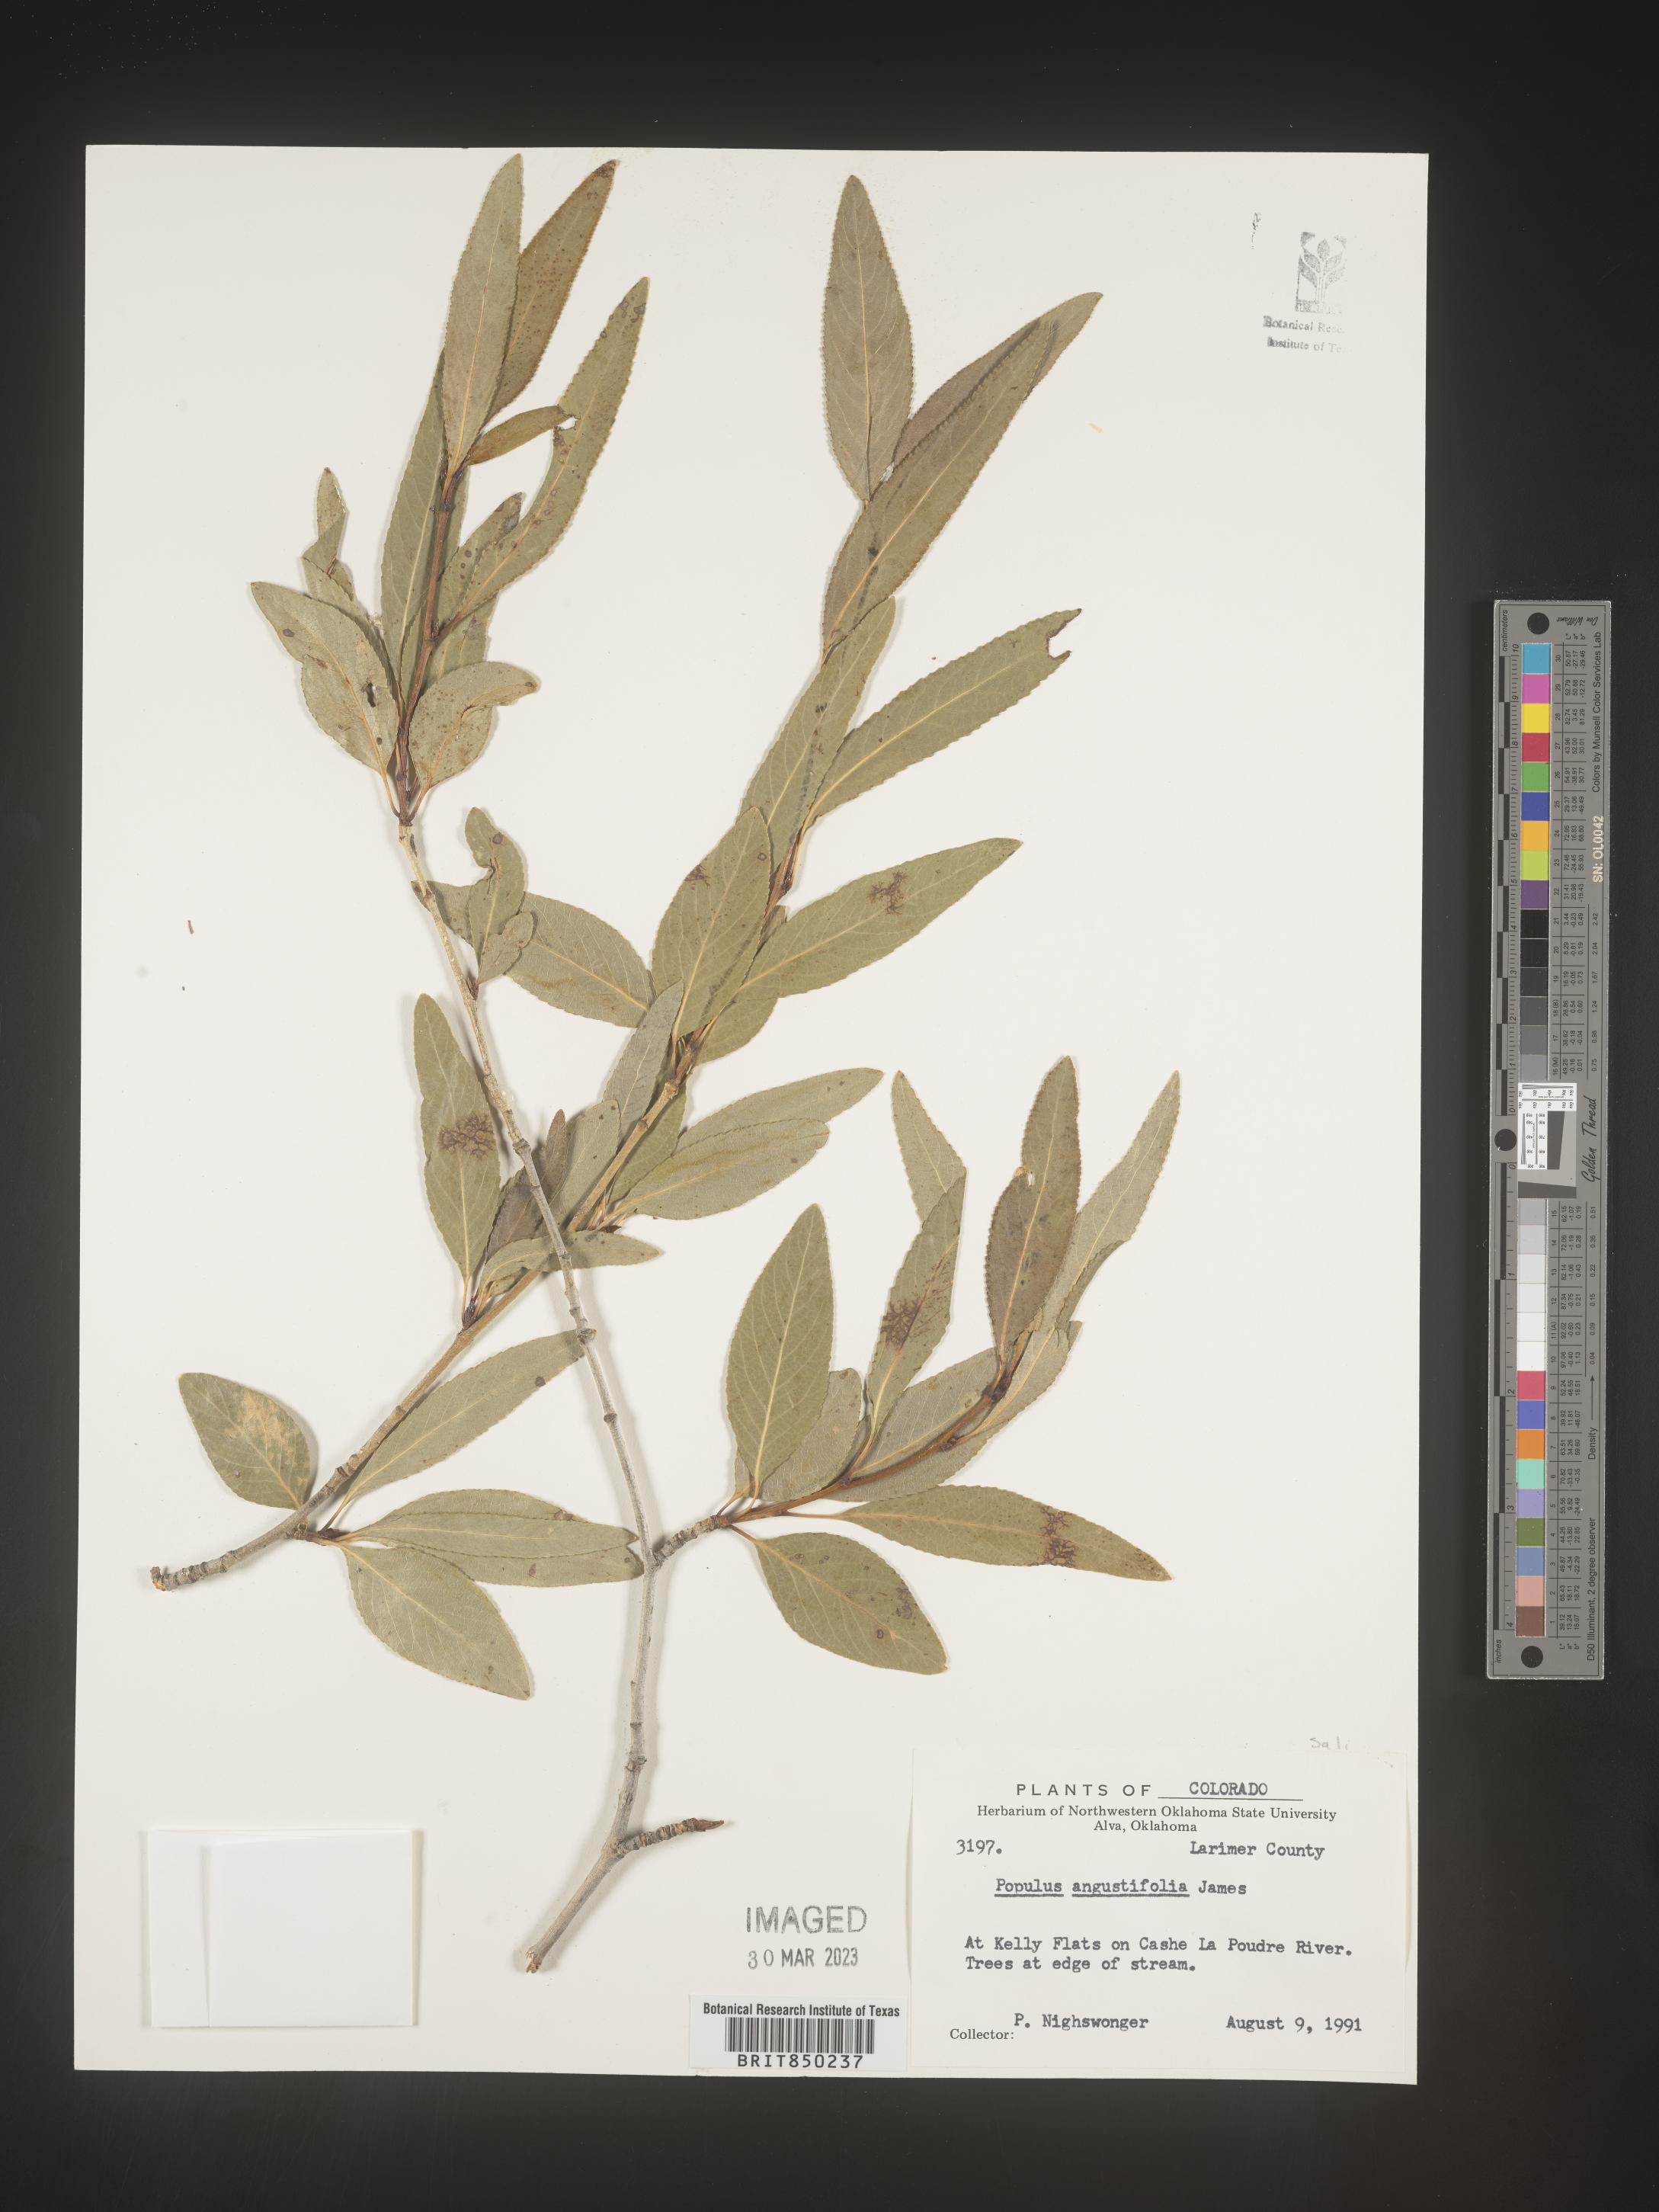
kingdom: Plantae
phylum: Tracheophyta
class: Magnoliopsida
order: Malpighiales
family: Salicaceae
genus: Populus
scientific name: Populus angustifolia
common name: Willow cottonwood
